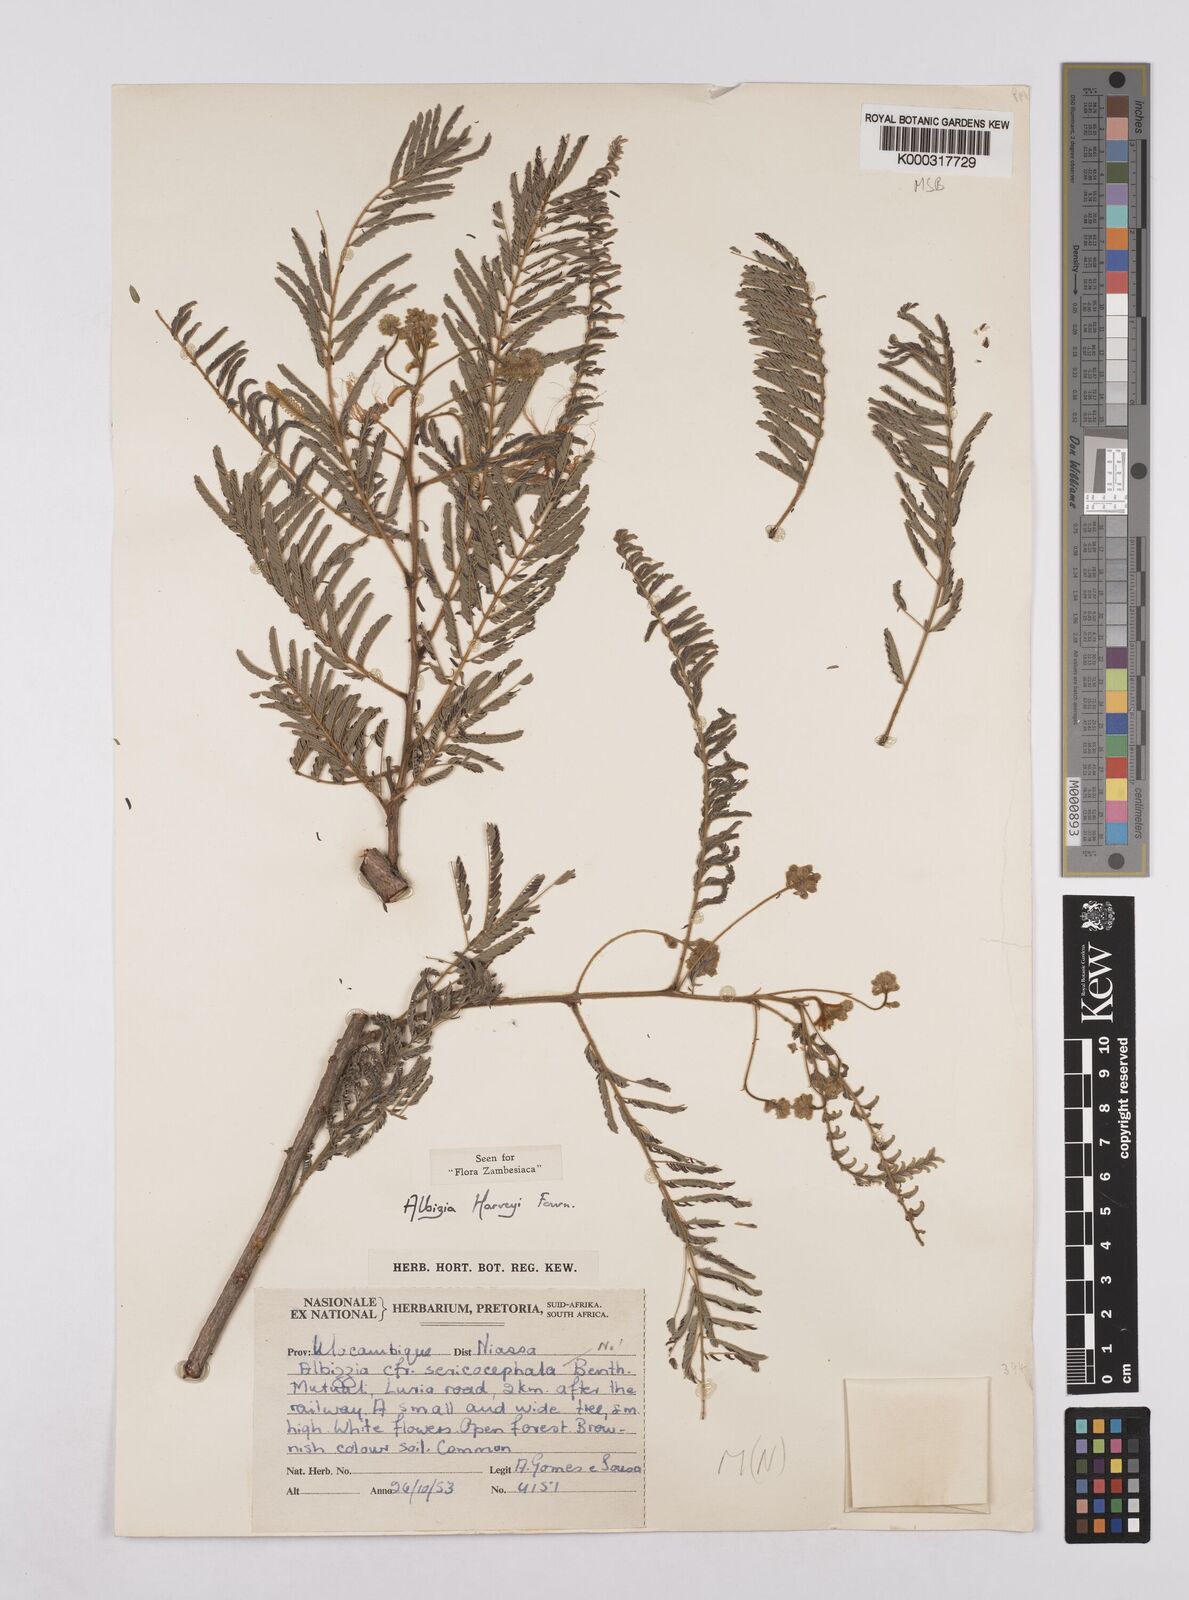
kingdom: Plantae
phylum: Tracheophyta
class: Magnoliopsida
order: Fabales
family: Fabaceae
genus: Albizia
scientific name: Albizia harveyi
